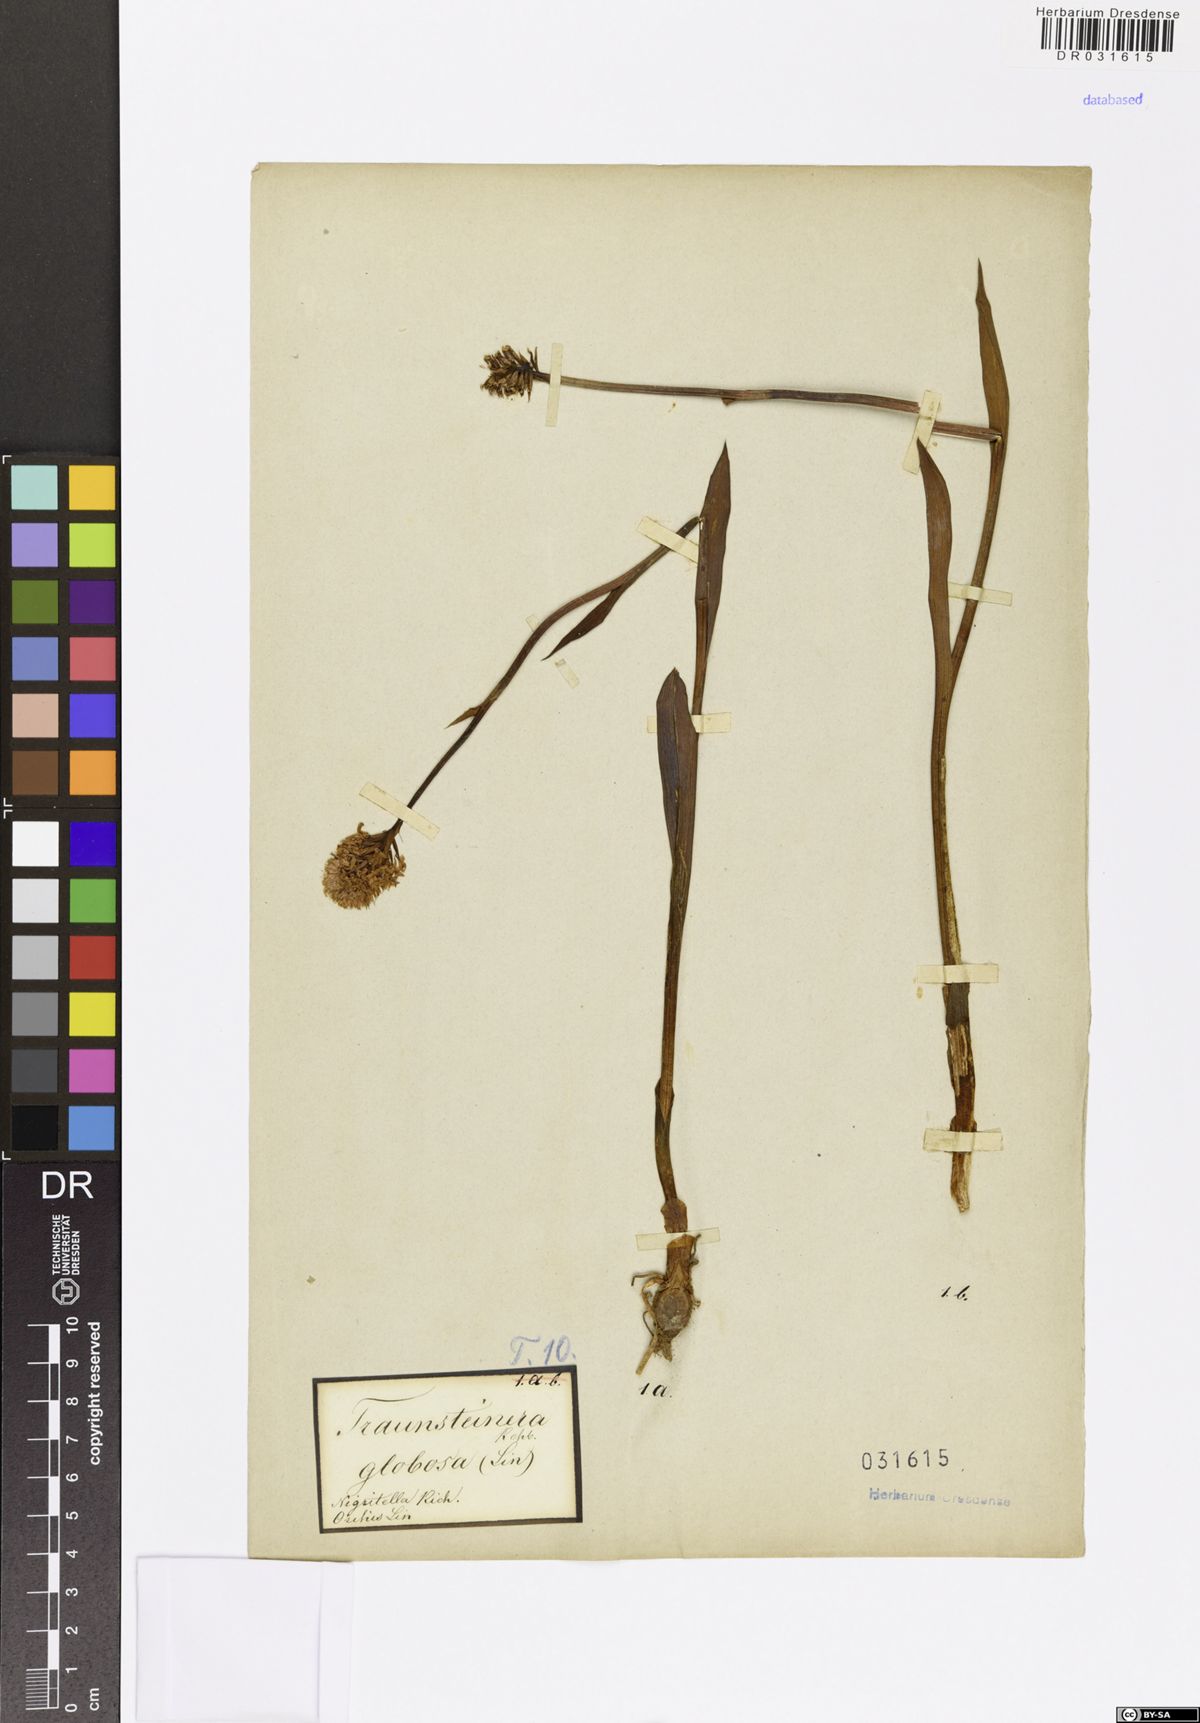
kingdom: Plantae
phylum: Tracheophyta
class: Liliopsida
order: Asparagales
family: Orchidaceae
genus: Traunsteinera
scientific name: Traunsteinera globosa
